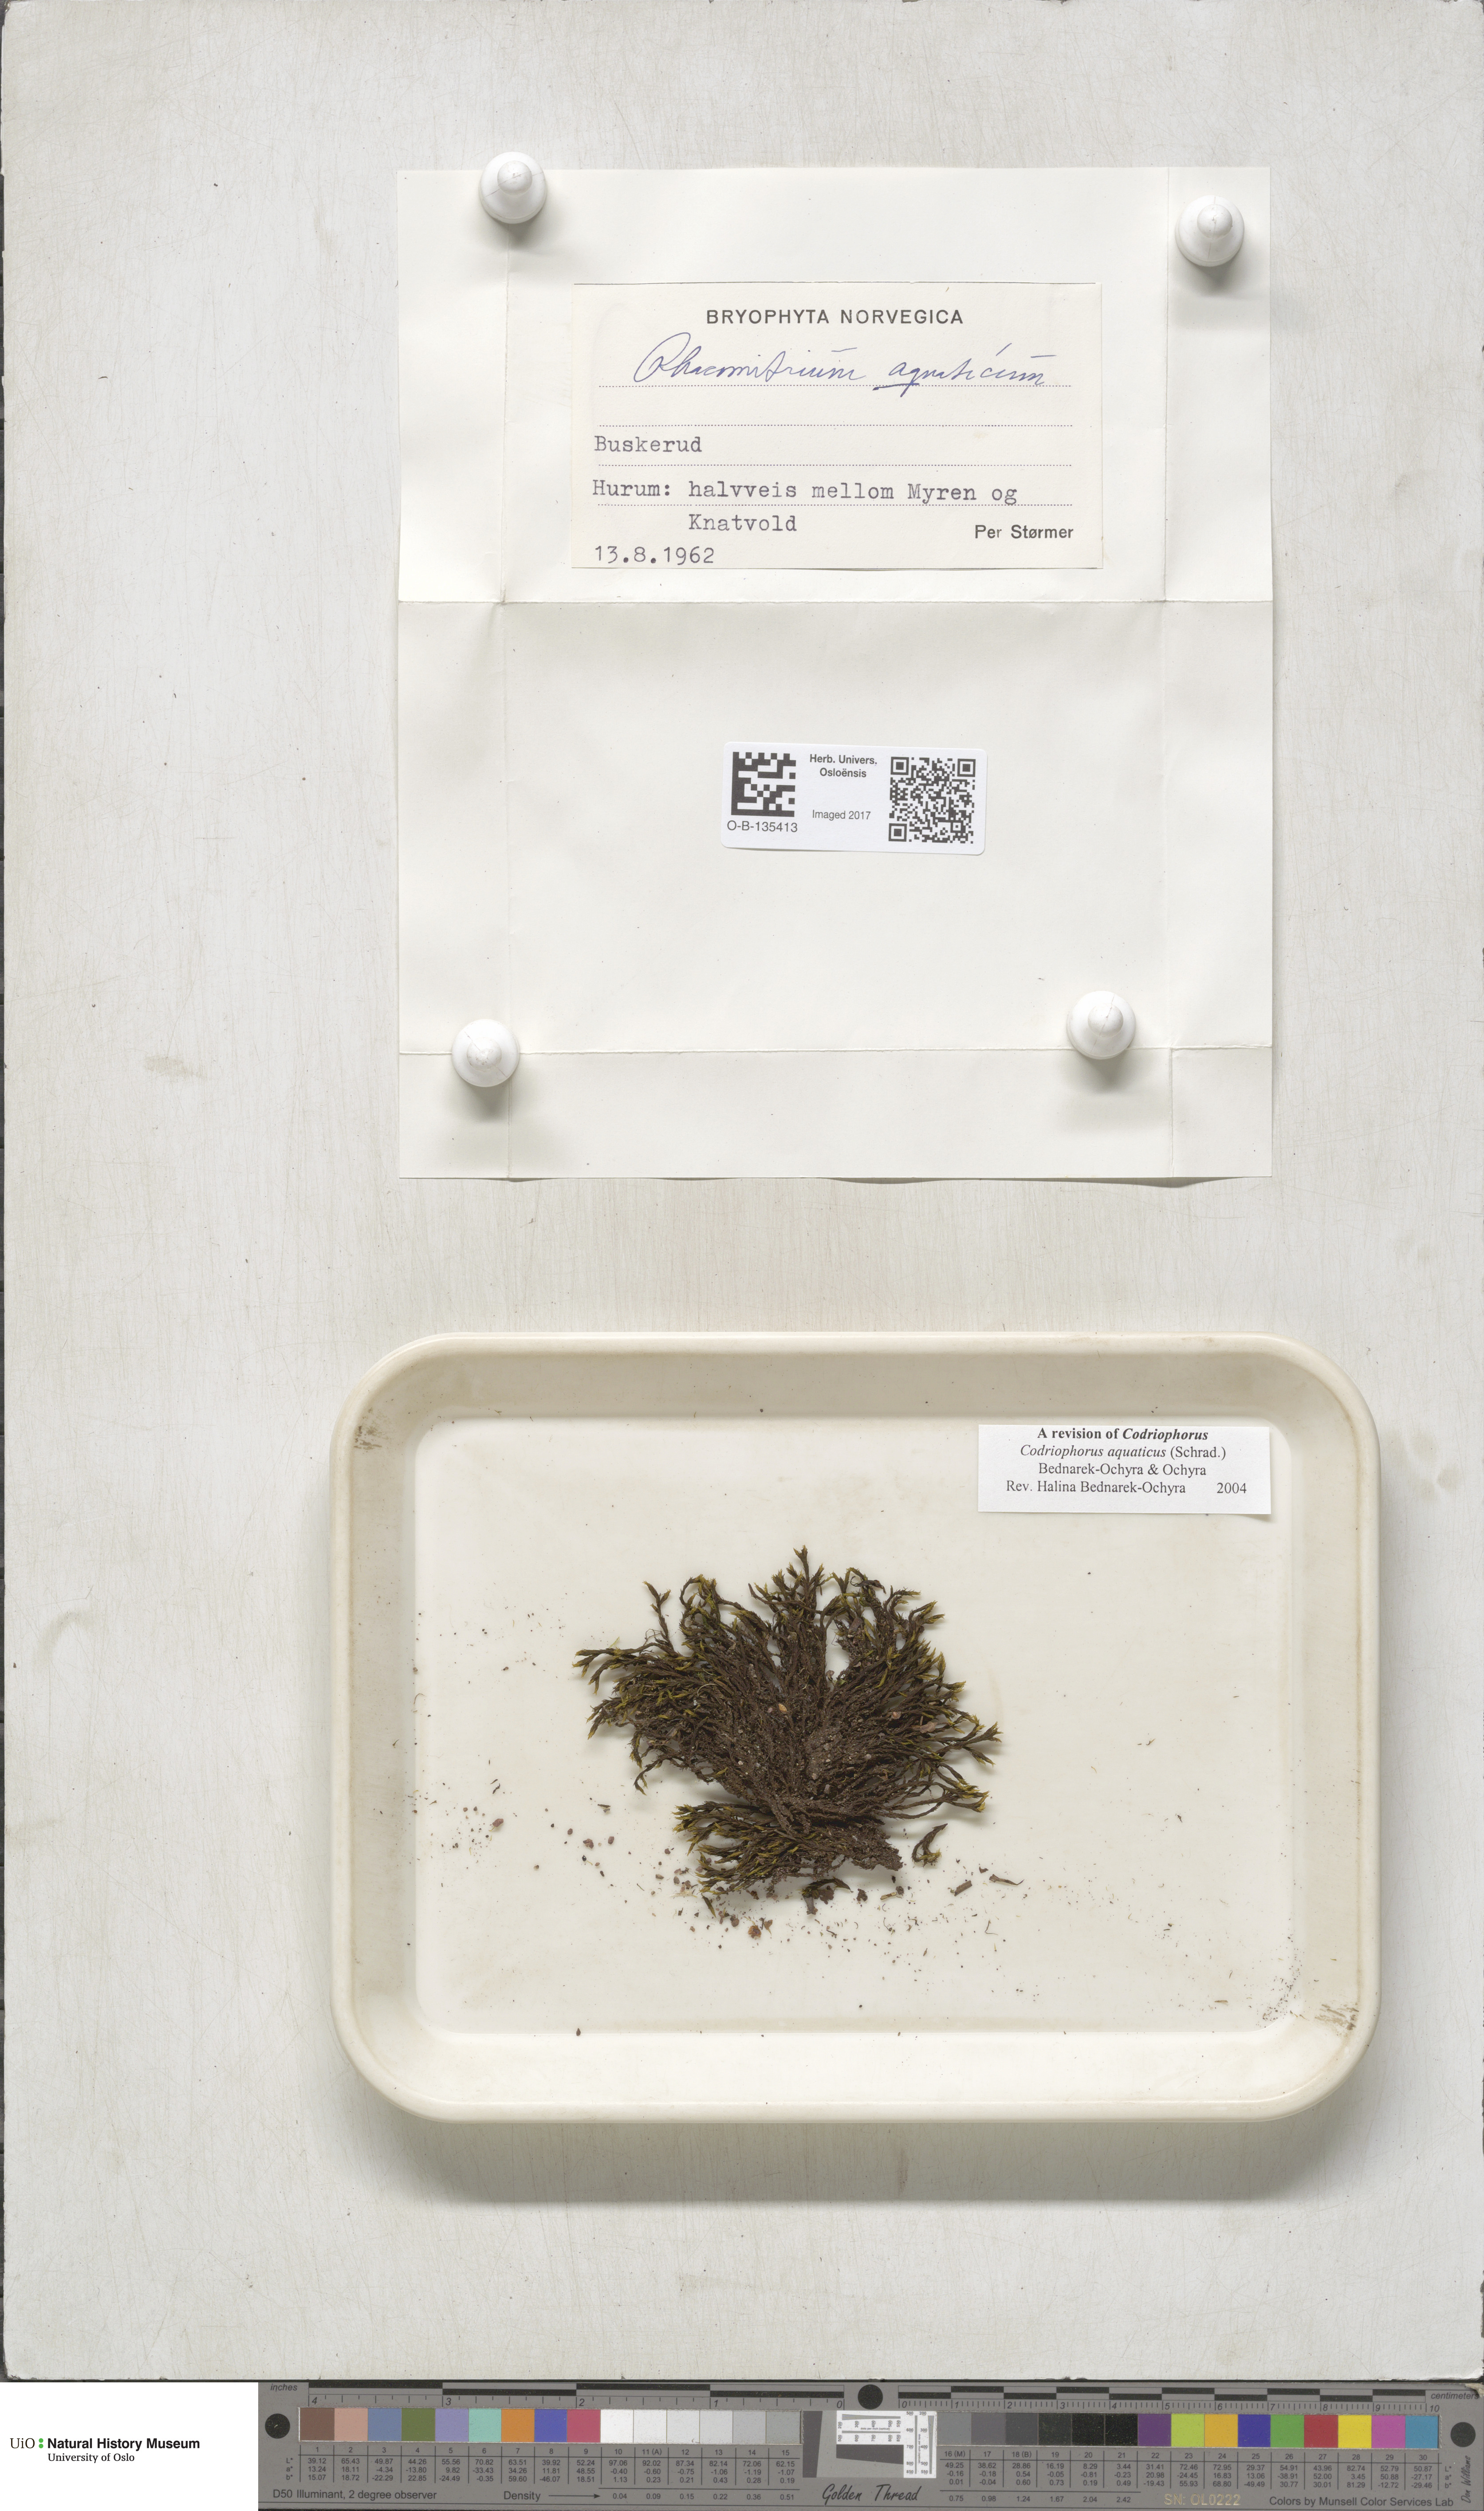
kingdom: Plantae
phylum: Bryophyta
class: Bryopsida
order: Grimmiales
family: Grimmiaceae
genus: Codriophorus
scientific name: Codriophorus aquaticus
